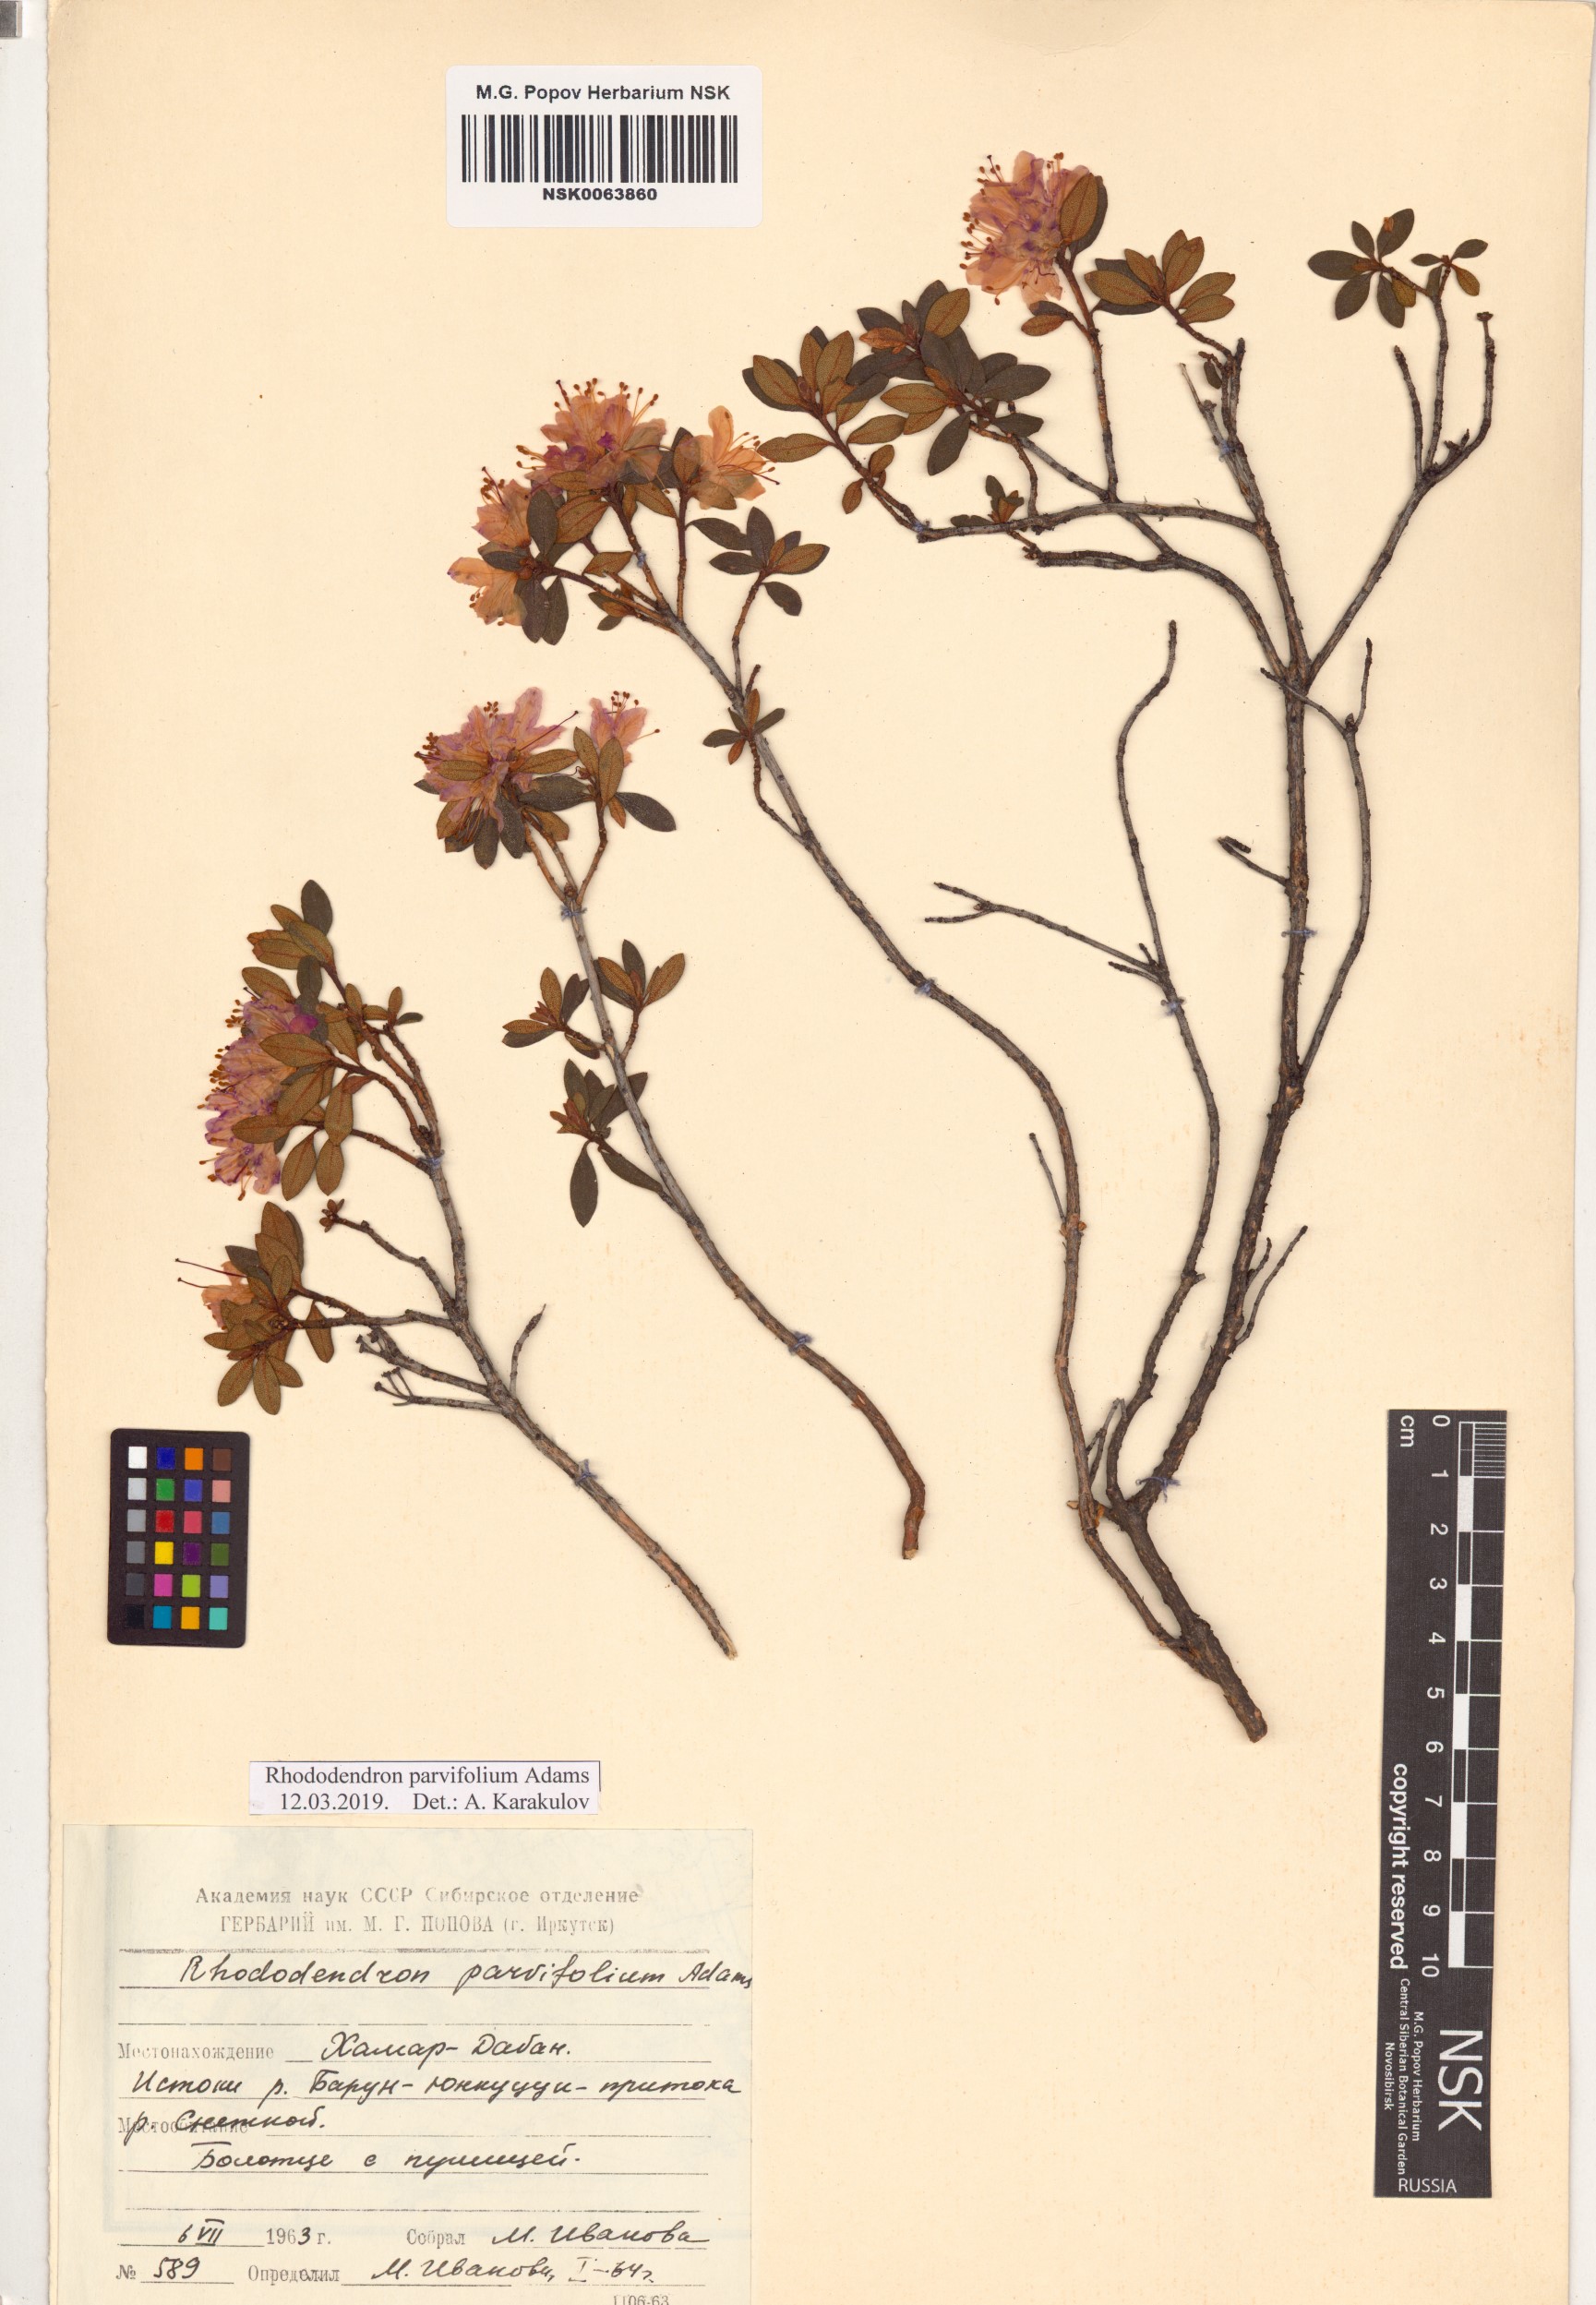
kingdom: Plantae
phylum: Tracheophyta
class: Magnoliopsida
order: Ericales
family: Ericaceae
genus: Rhododendron
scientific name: Rhododendron parvifolium
